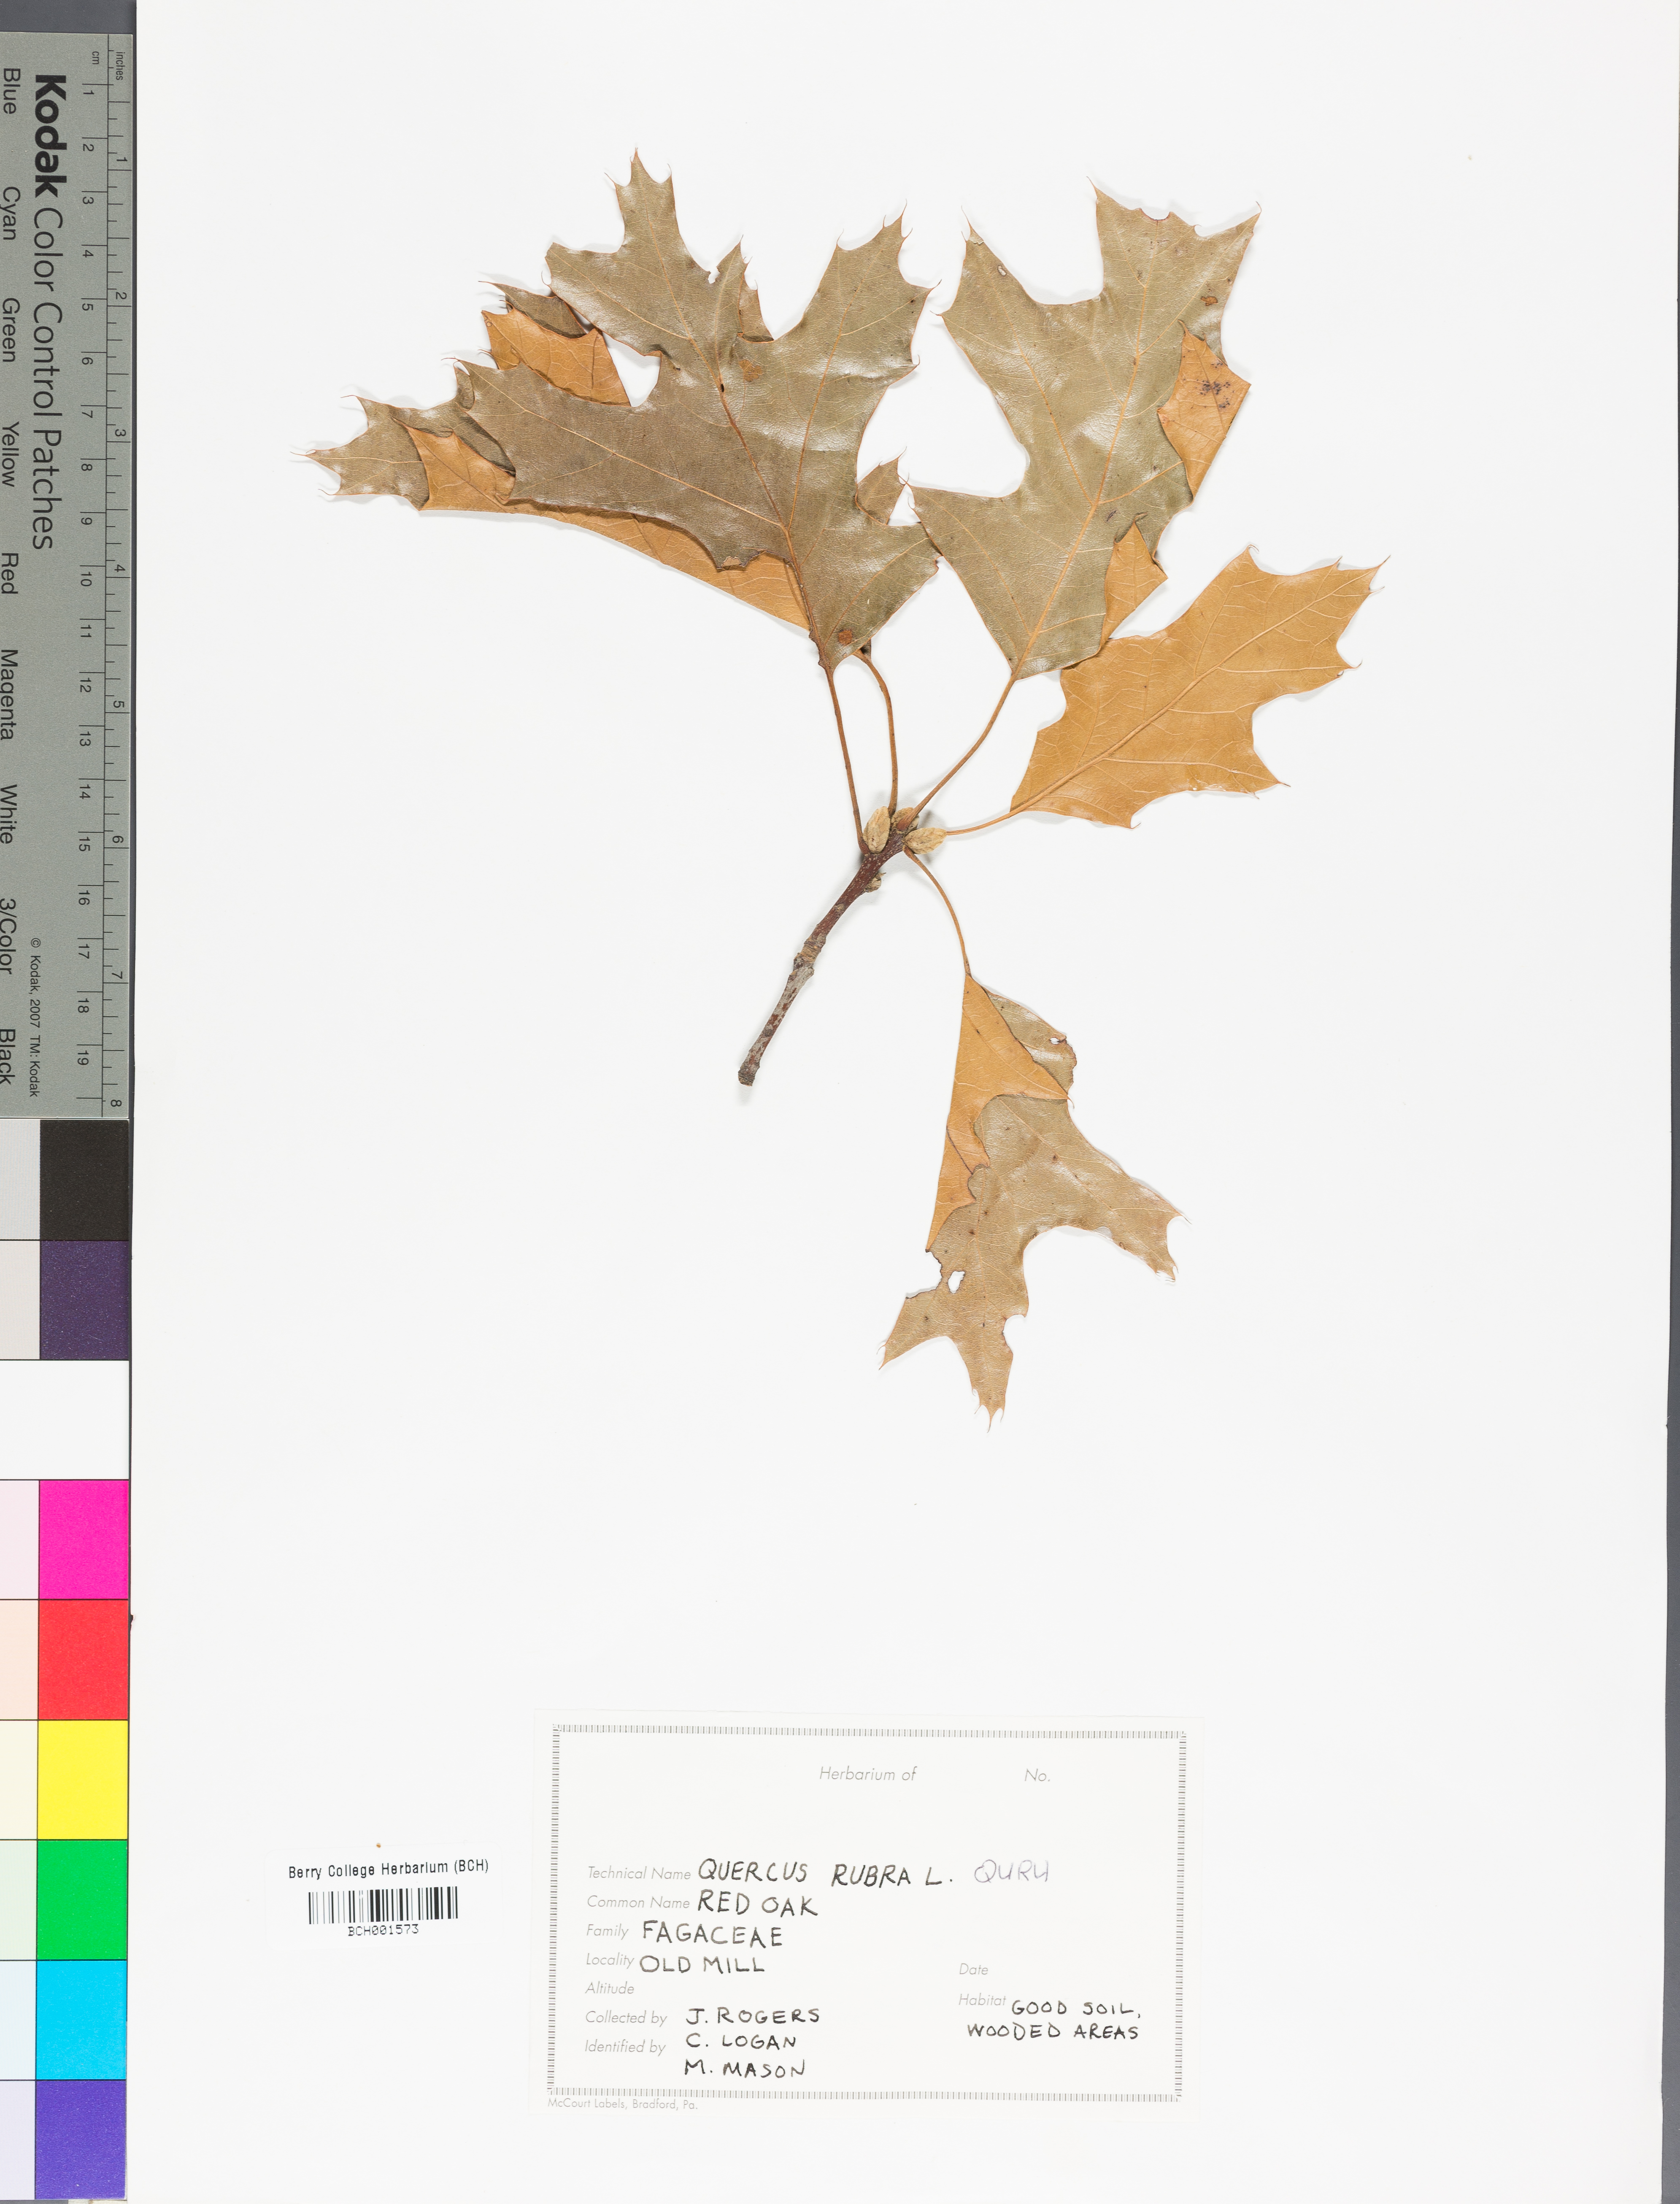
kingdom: Plantae
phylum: Tracheophyta
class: Magnoliopsida
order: Fagales
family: Fagaceae
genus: Quercus
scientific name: Quercus rubra
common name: Red oak
